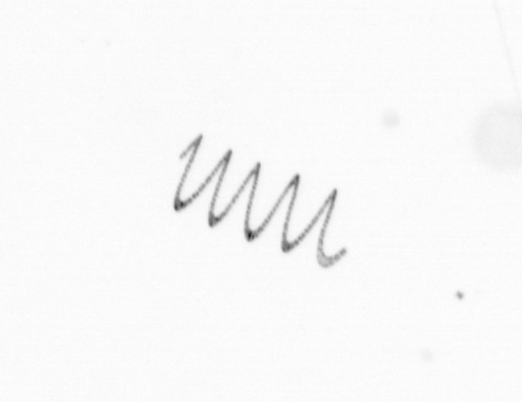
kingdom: Chromista
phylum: Ochrophyta
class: Bacillariophyceae
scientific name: Bacillariophyceae
